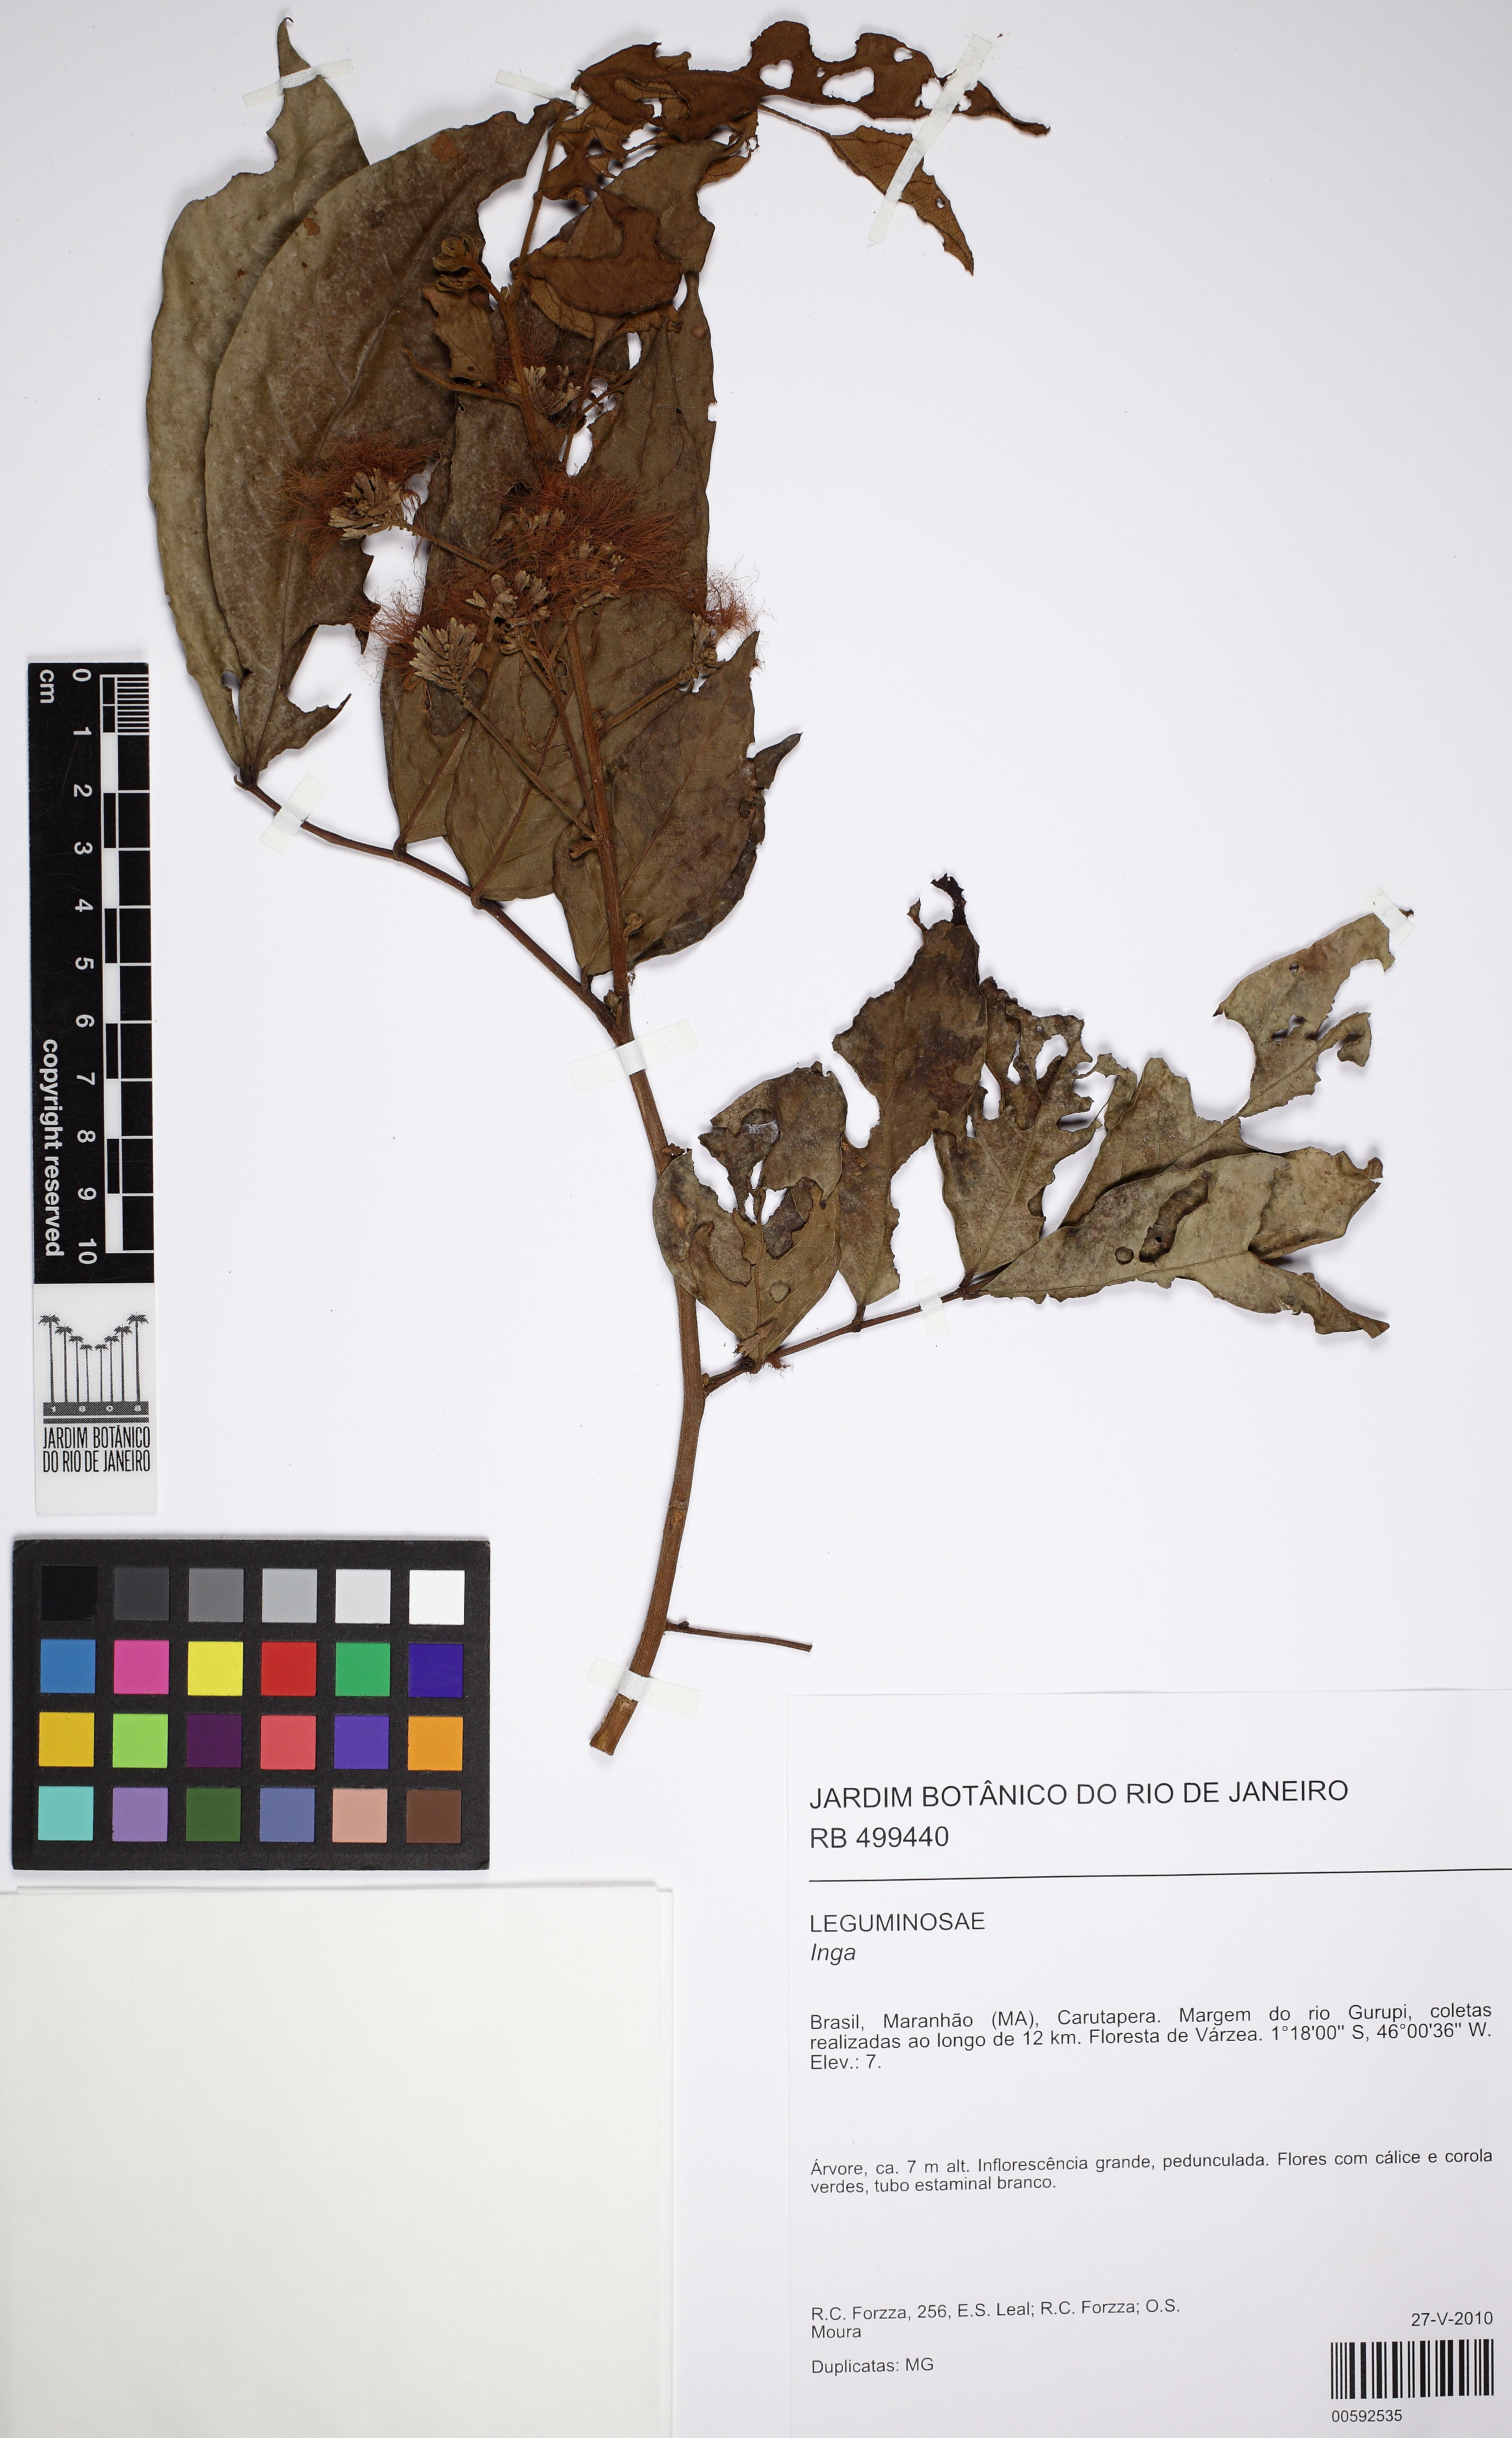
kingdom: Plantae
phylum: Tracheophyta
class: Magnoliopsida
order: Fabales
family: Fabaceae
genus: Inga
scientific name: Inga nobilis
